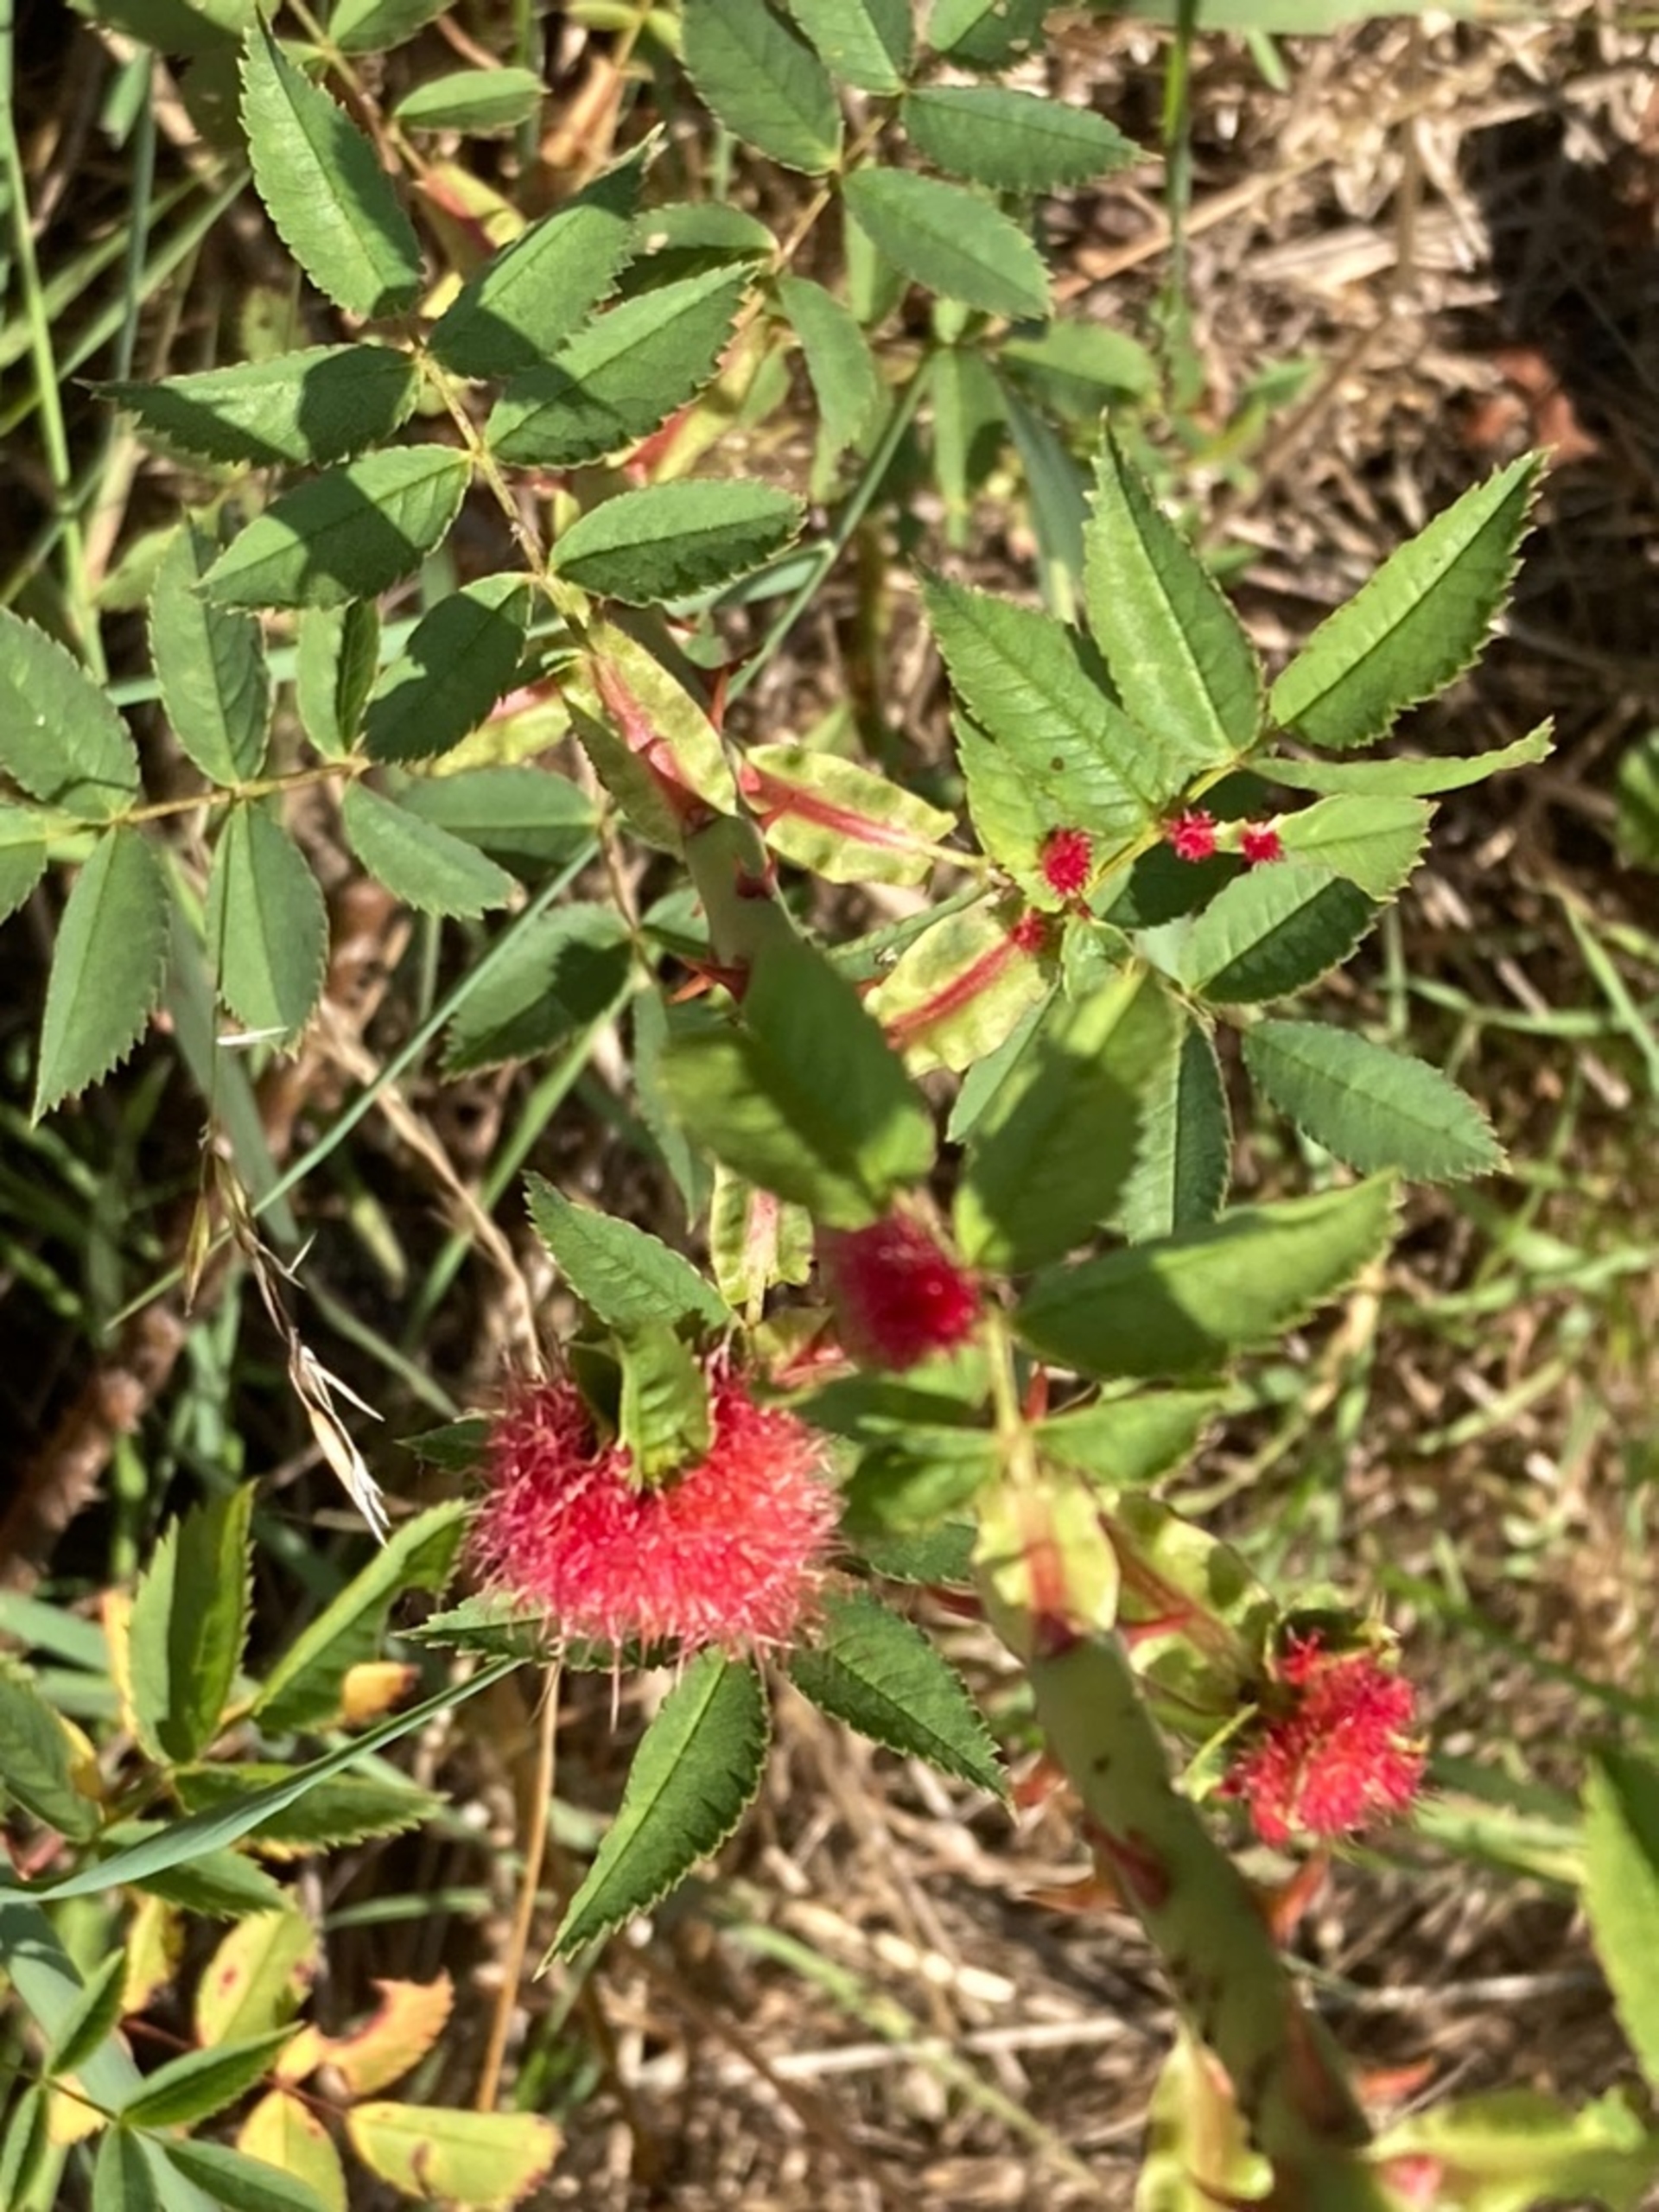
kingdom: Animalia
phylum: Arthropoda
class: Insecta
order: Hymenoptera
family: Cynipidae
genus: Diplolepis
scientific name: Diplolepis rosae
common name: Bedeguargalhveps
